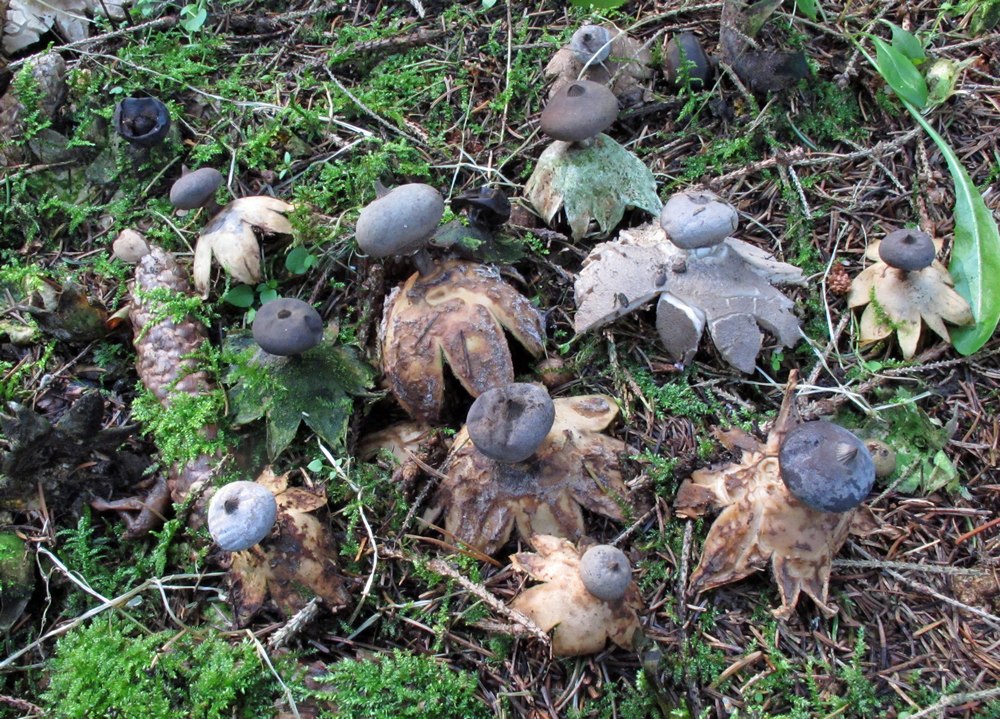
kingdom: Fungi
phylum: Basidiomycota
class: Agaricomycetes
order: Geastrales
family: Geastraceae
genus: Geastrum
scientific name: Geastrum pectinatum
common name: stilket stjernebold
